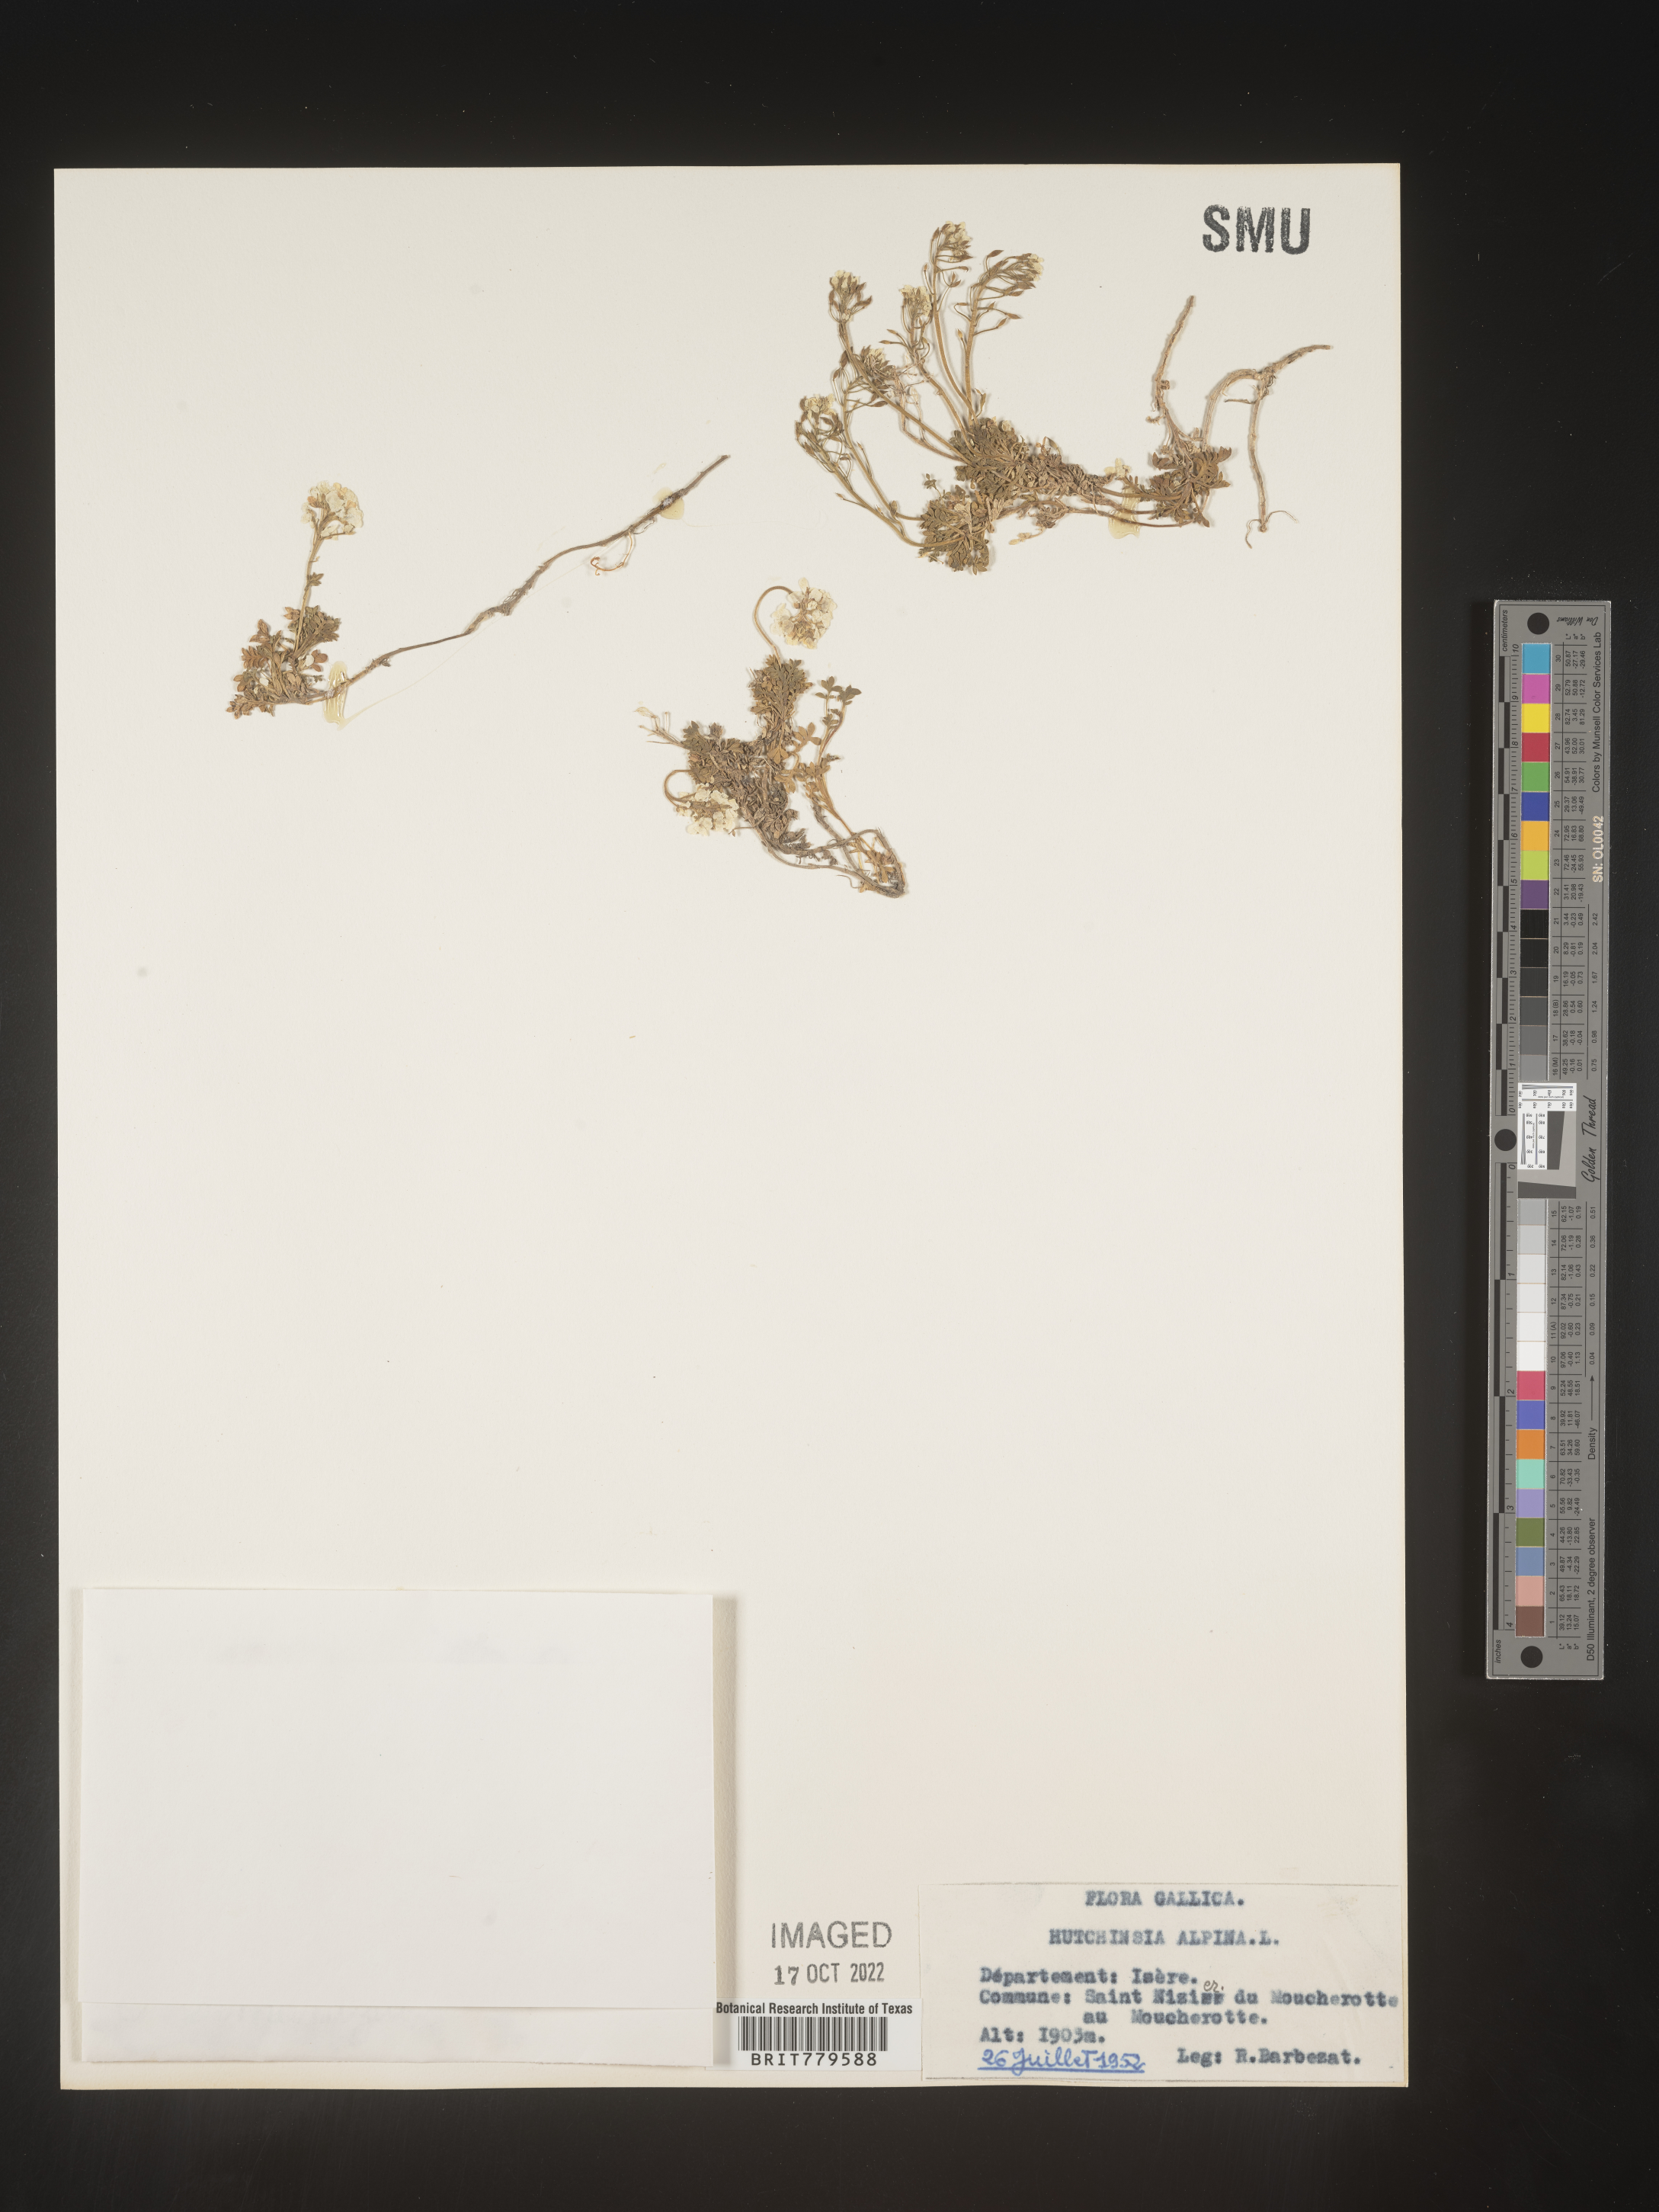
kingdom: Plantae
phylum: Rhodophyta
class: Florideophyceae
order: Ceramiales
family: Rhodomelaceae
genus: Hutchinsia
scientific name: Hutchinsia
